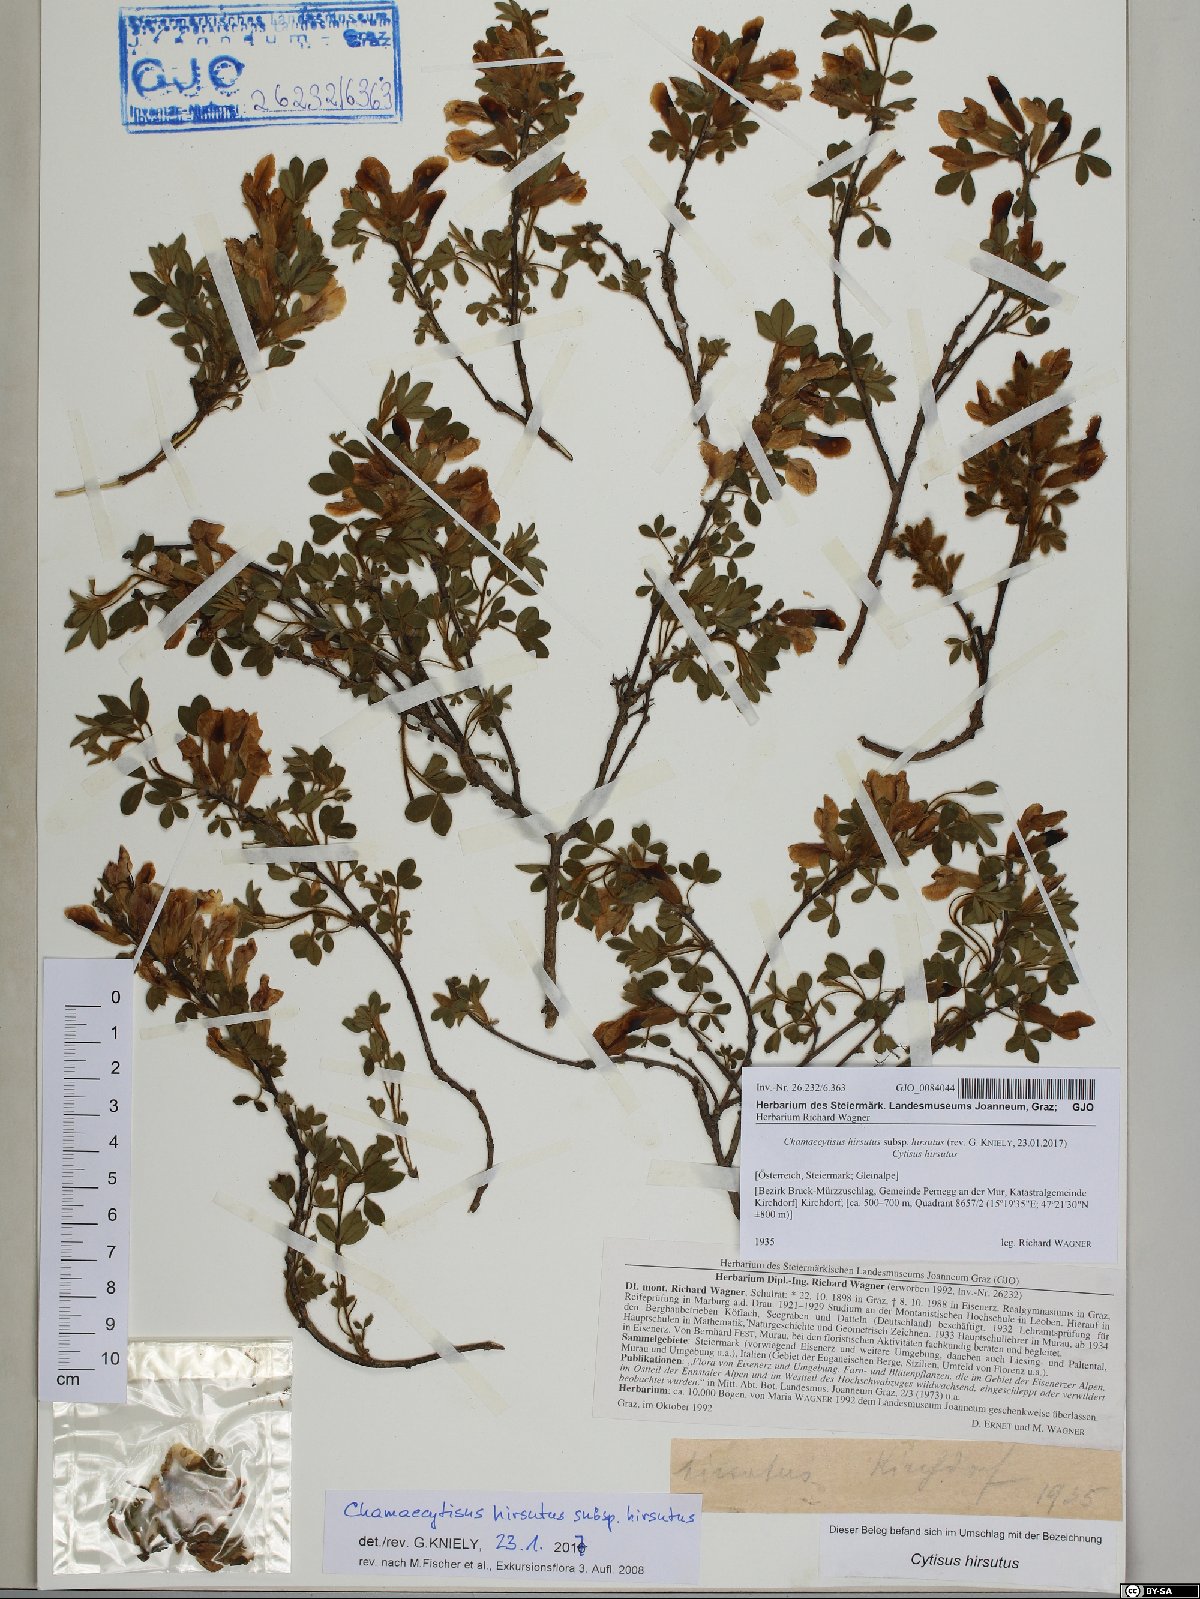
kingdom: Plantae
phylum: Tracheophyta
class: Magnoliopsida
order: Fabales
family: Fabaceae
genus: Chamaecytisus
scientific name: Chamaecytisus hirsutus
